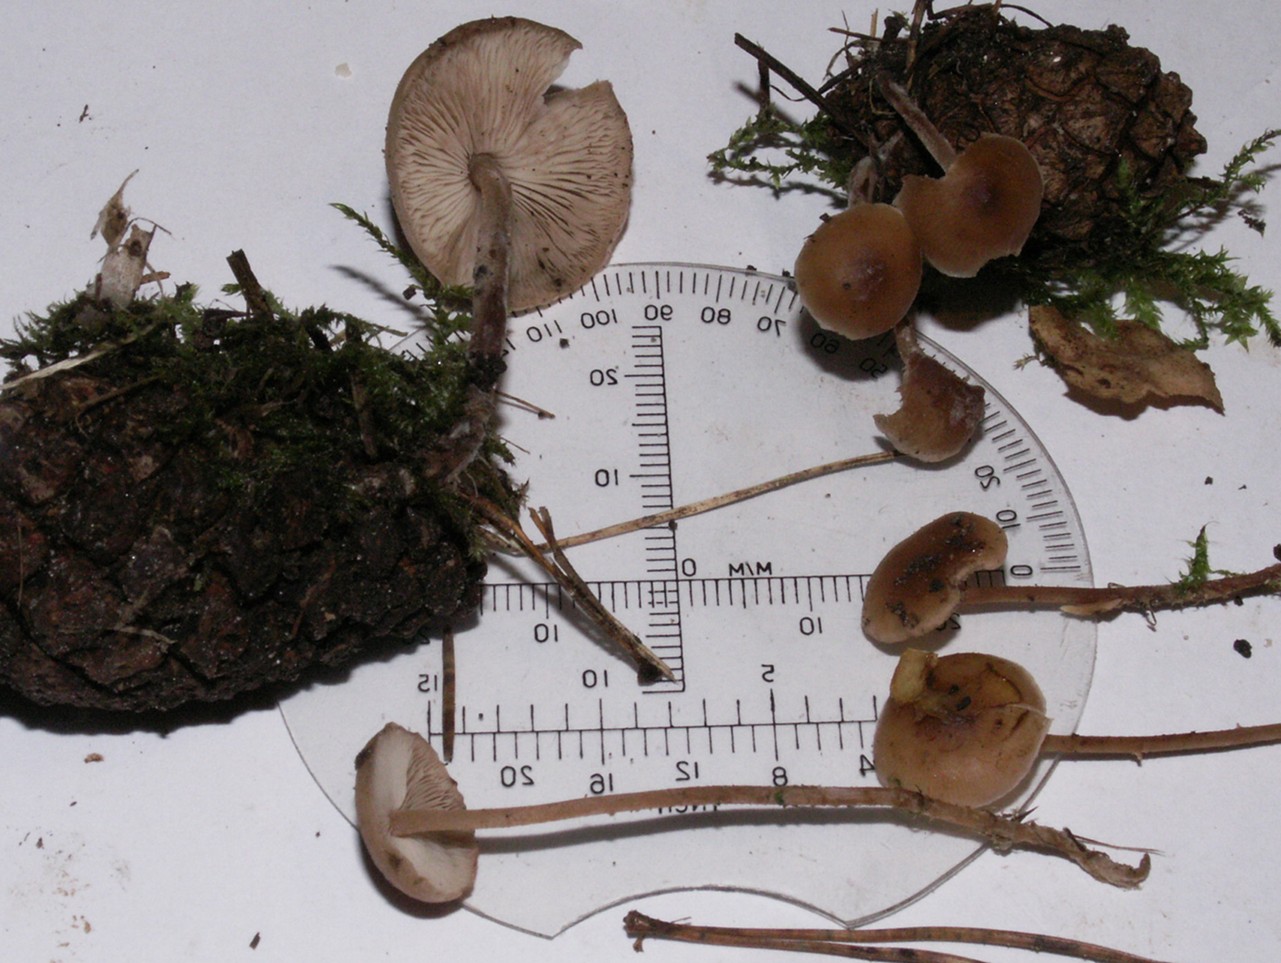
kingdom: Fungi
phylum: Basidiomycota
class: Agaricomycetes
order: Agaricales
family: Physalacriaceae
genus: Strobilurus
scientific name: Strobilurus tenacellus
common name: sommer-koglehat
